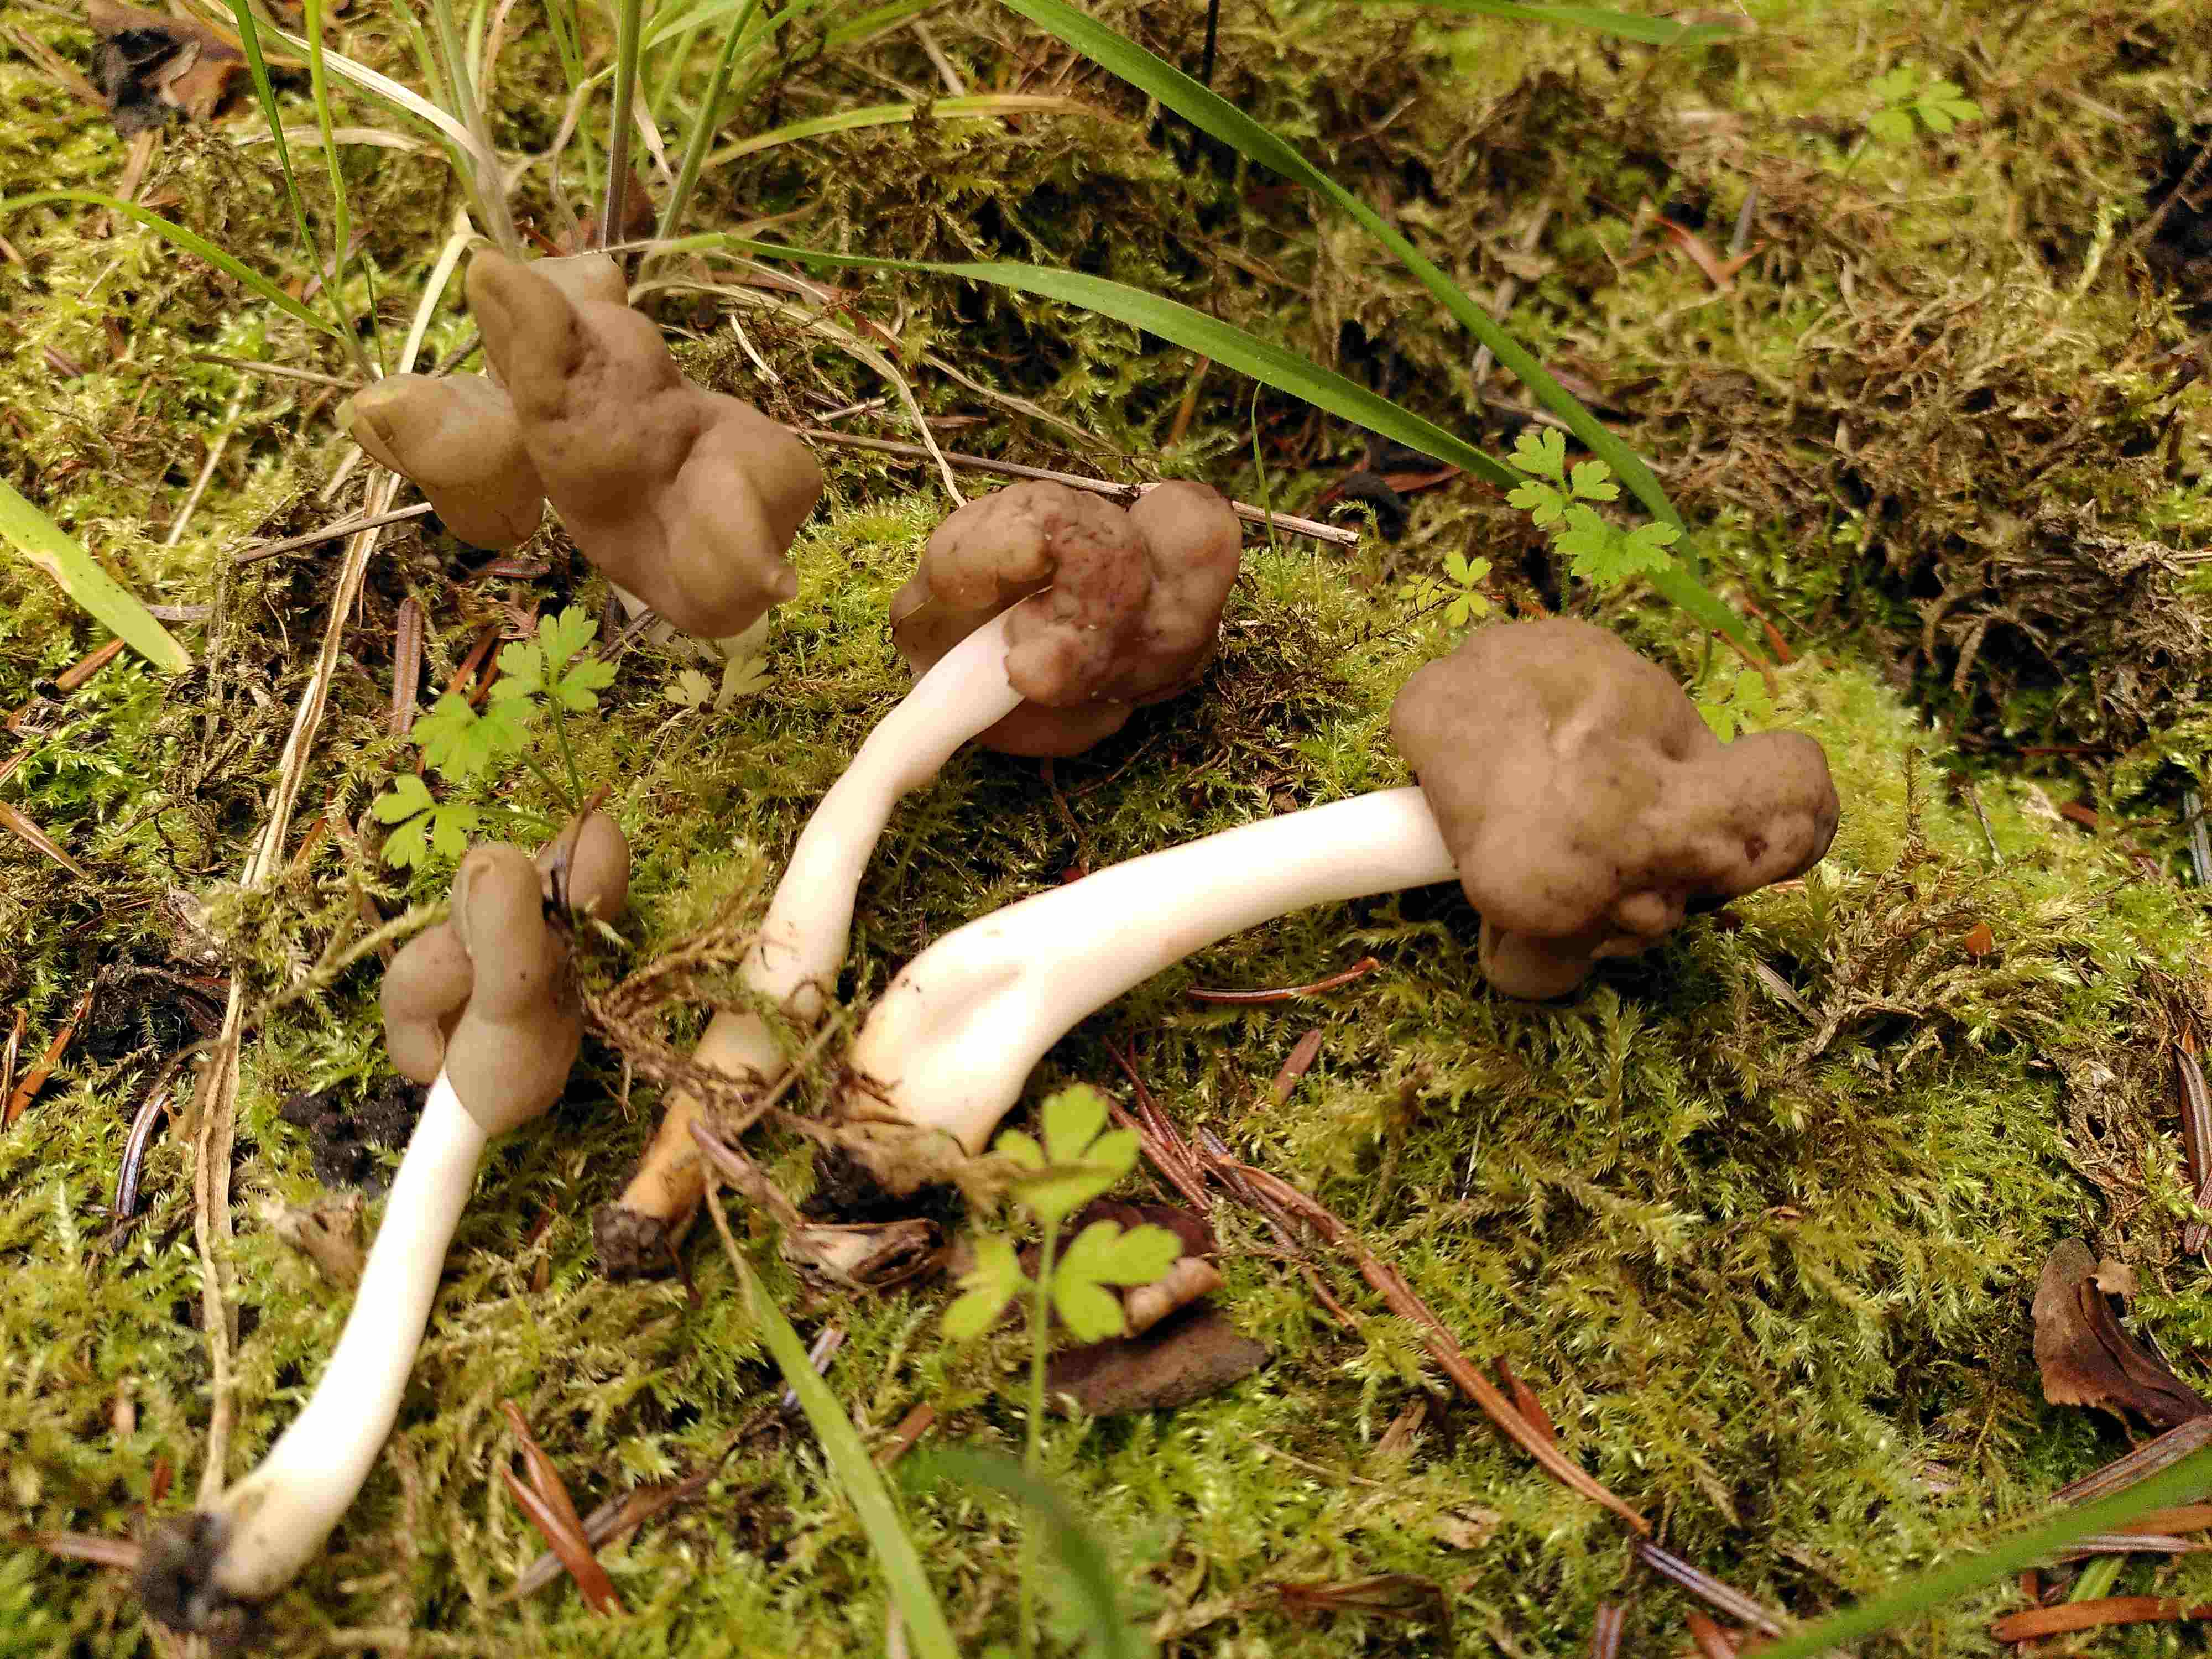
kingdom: Fungi
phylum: Ascomycota
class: Pezizomycetes
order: Pezizales
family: Helvellaceae
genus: Helvella
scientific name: Helvella elastica
